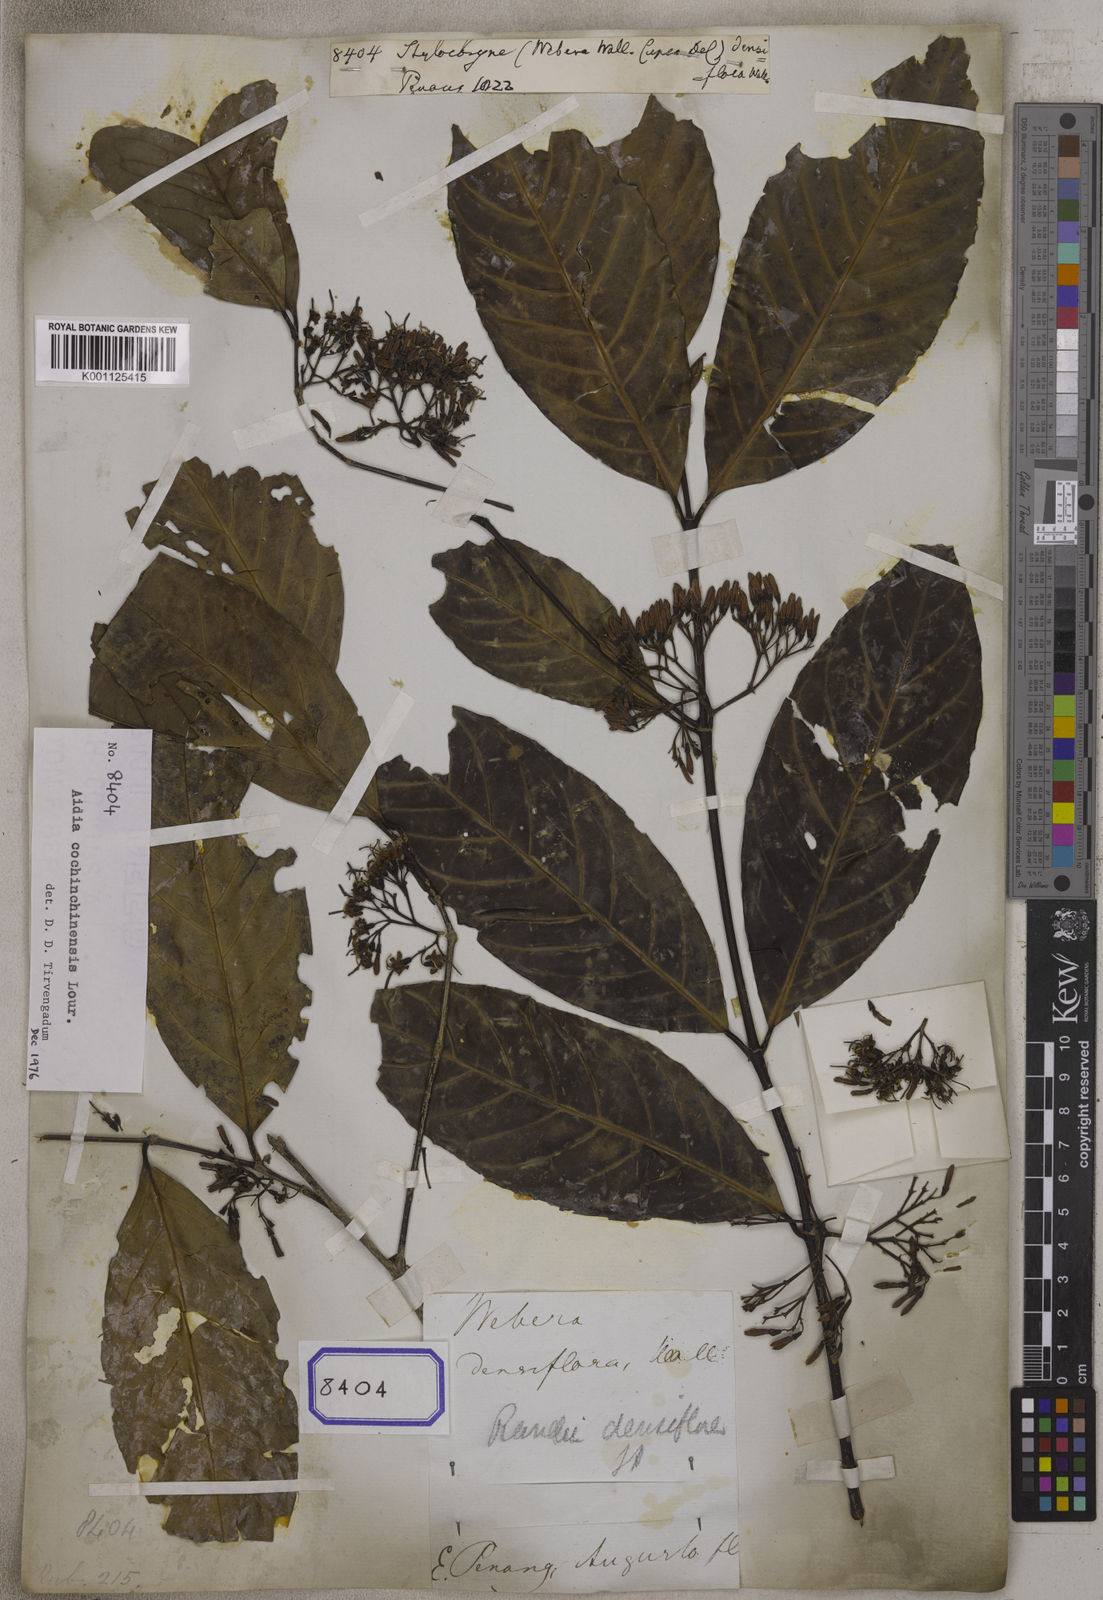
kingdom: Plantae
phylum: Tracheophyta
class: Magnoliopsida
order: Gentianales
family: Rubiaceae
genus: Aidia
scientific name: Aidia densiflora
